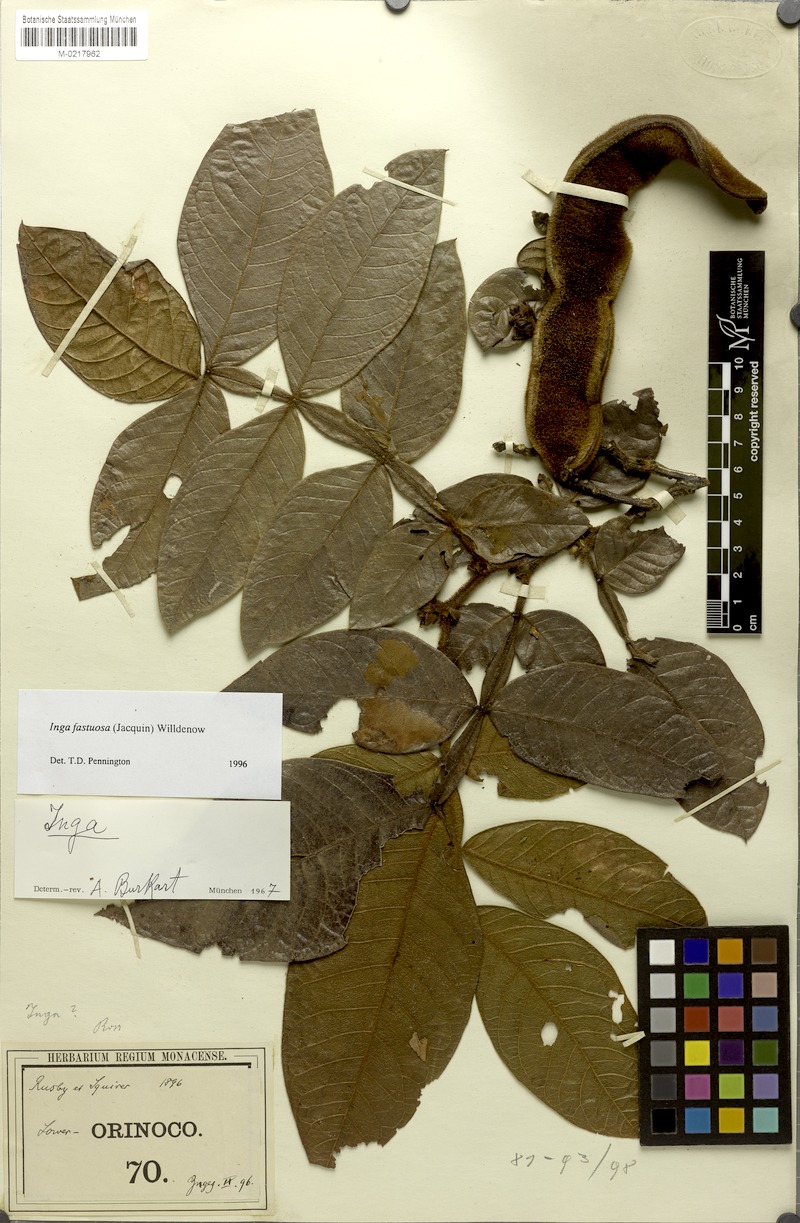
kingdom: Plantae
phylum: Tracheophyta
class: Magnoliopsida
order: Fabales
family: Fabaceae
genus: Inga
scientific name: Inga fastuosa
